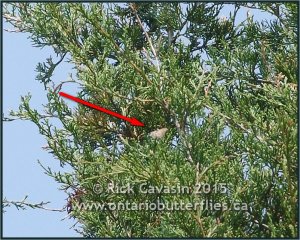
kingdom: Animalia
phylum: Arthropoda
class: Insecta
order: Lepidoptera
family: Lycaenidae
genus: Mitoura
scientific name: Mitoura gryneus
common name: Juniper Hairstreak
